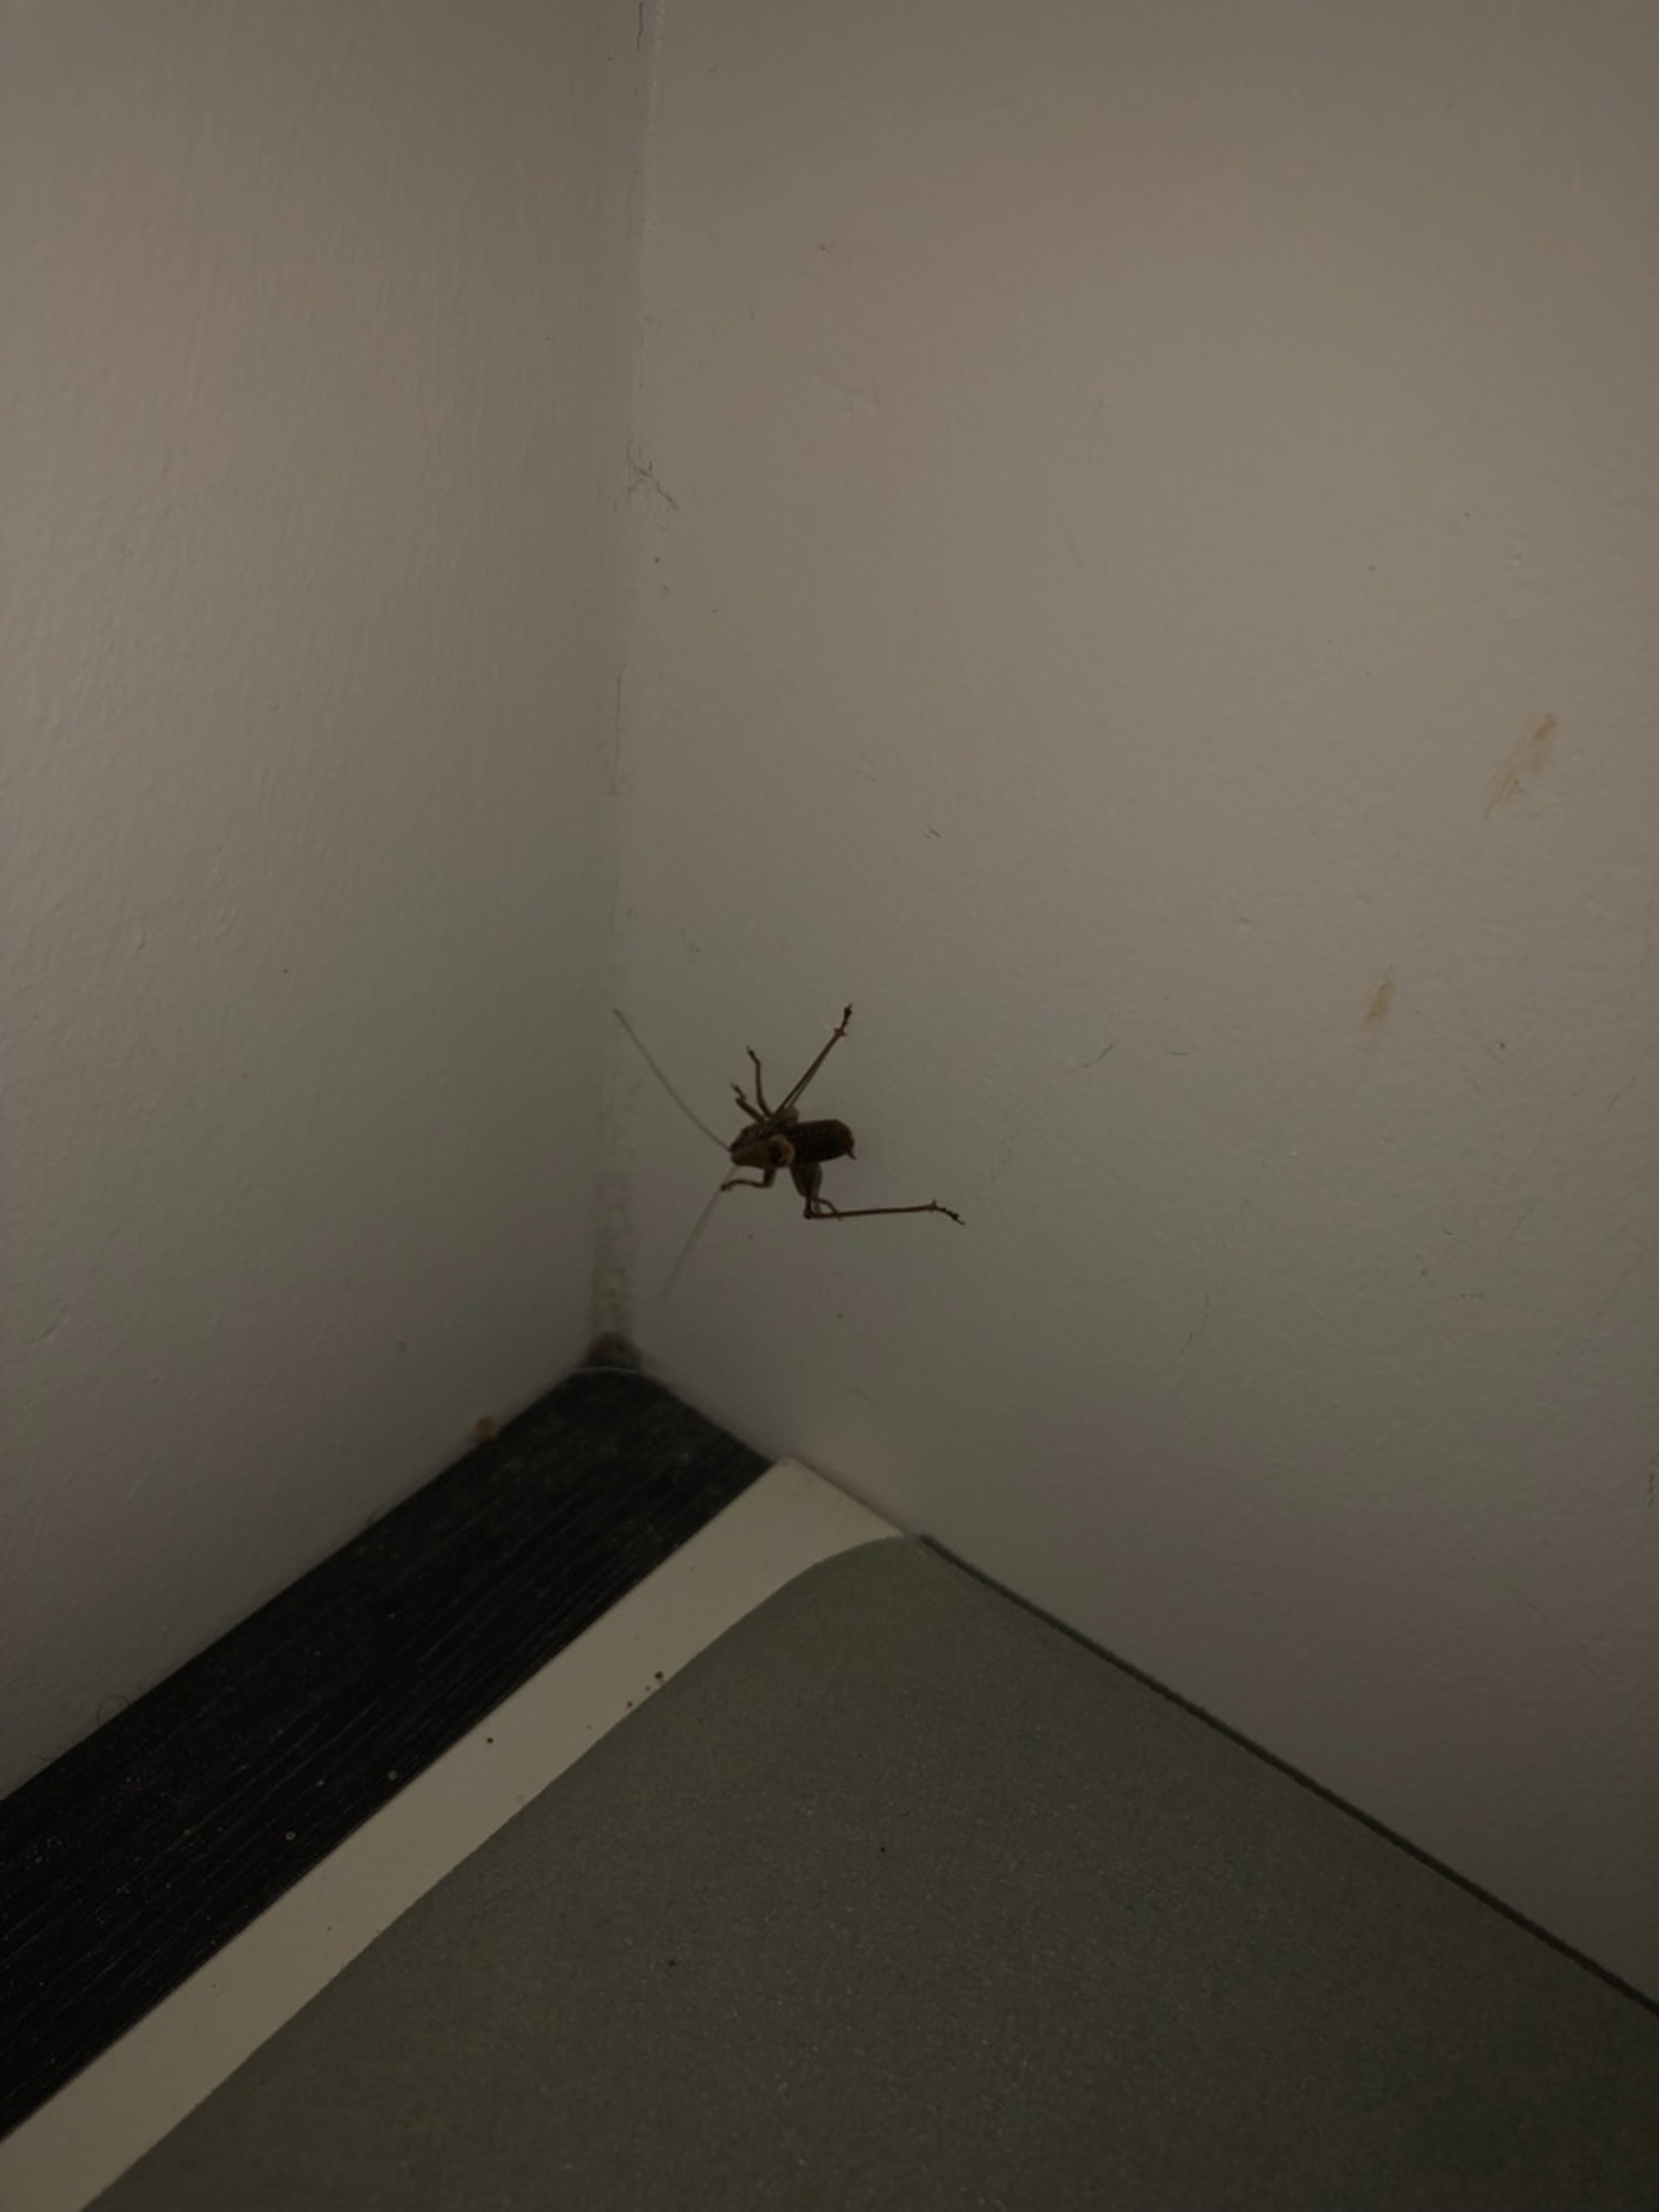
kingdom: Animalia
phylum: Arthropoda
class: Insecta
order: Orthoptera
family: Tettigoniidae
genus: Pholidoptera
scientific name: Pholidoptera griseoaptera
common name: Buskgræshoppe
